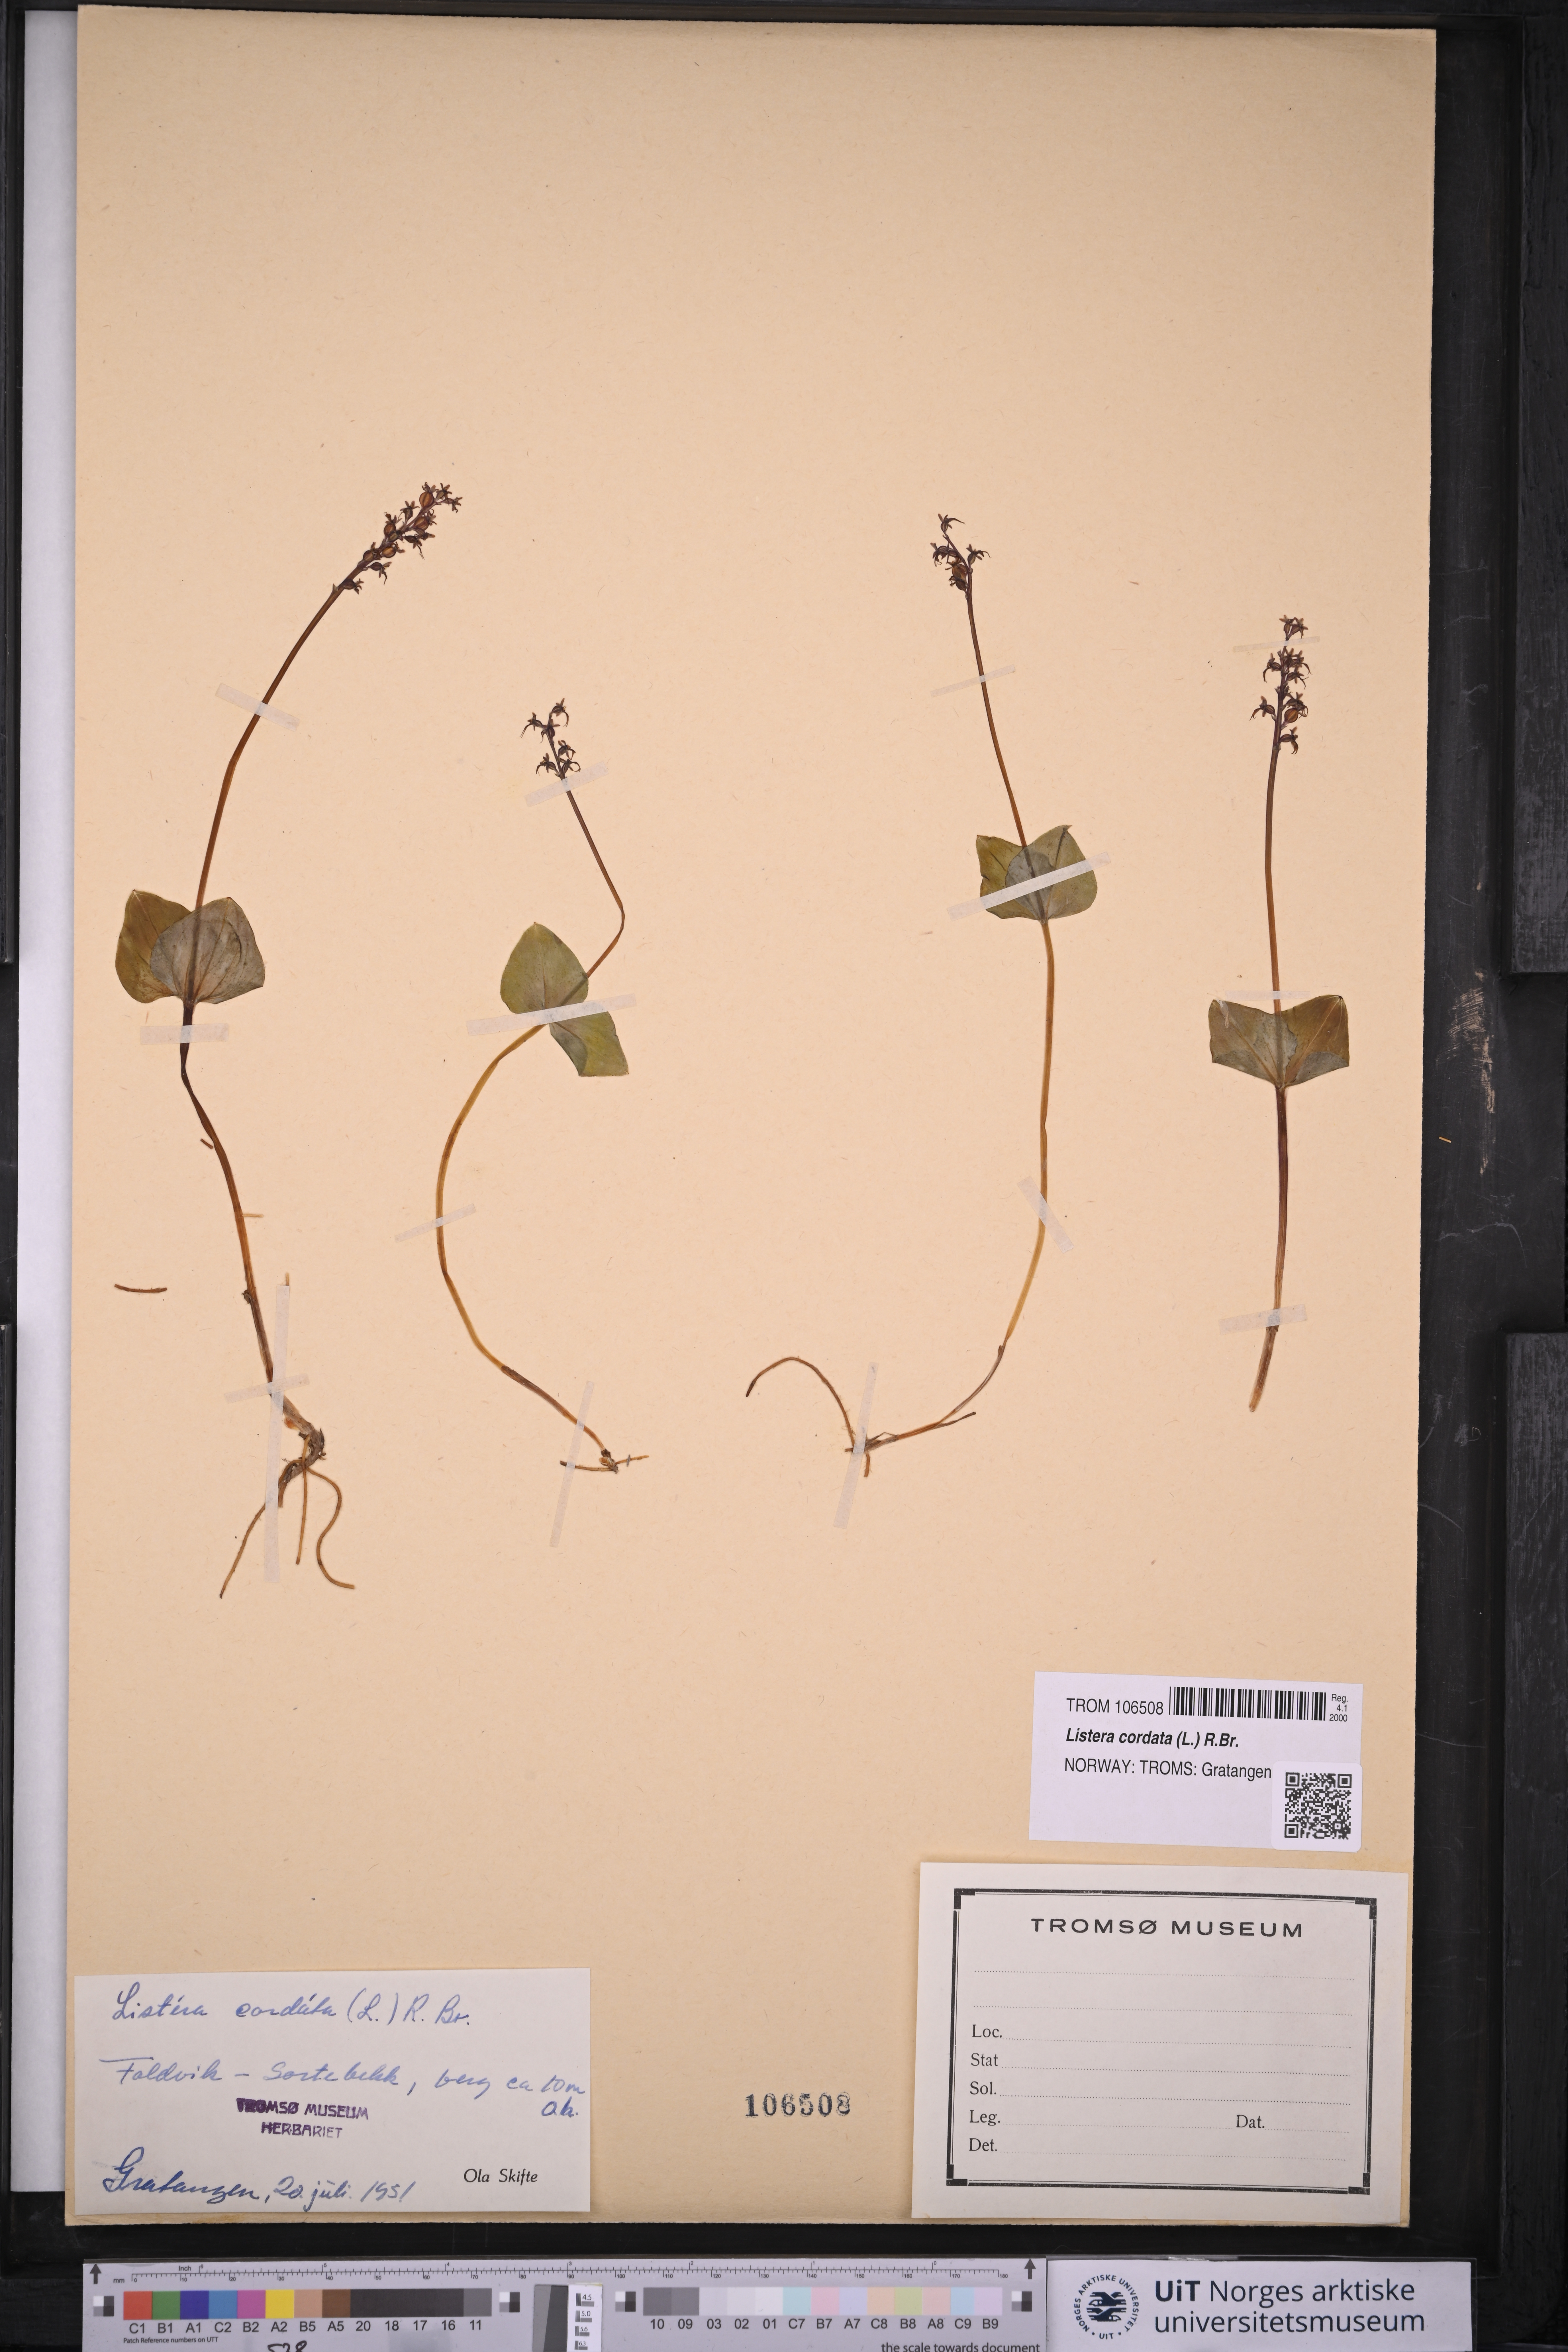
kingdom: Plantae
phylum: Tracheophyta
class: Liliopsida
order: Asparagales
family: Orchidaceae
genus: Neottia
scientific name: Neottia cordata
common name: Lesser twayblade
